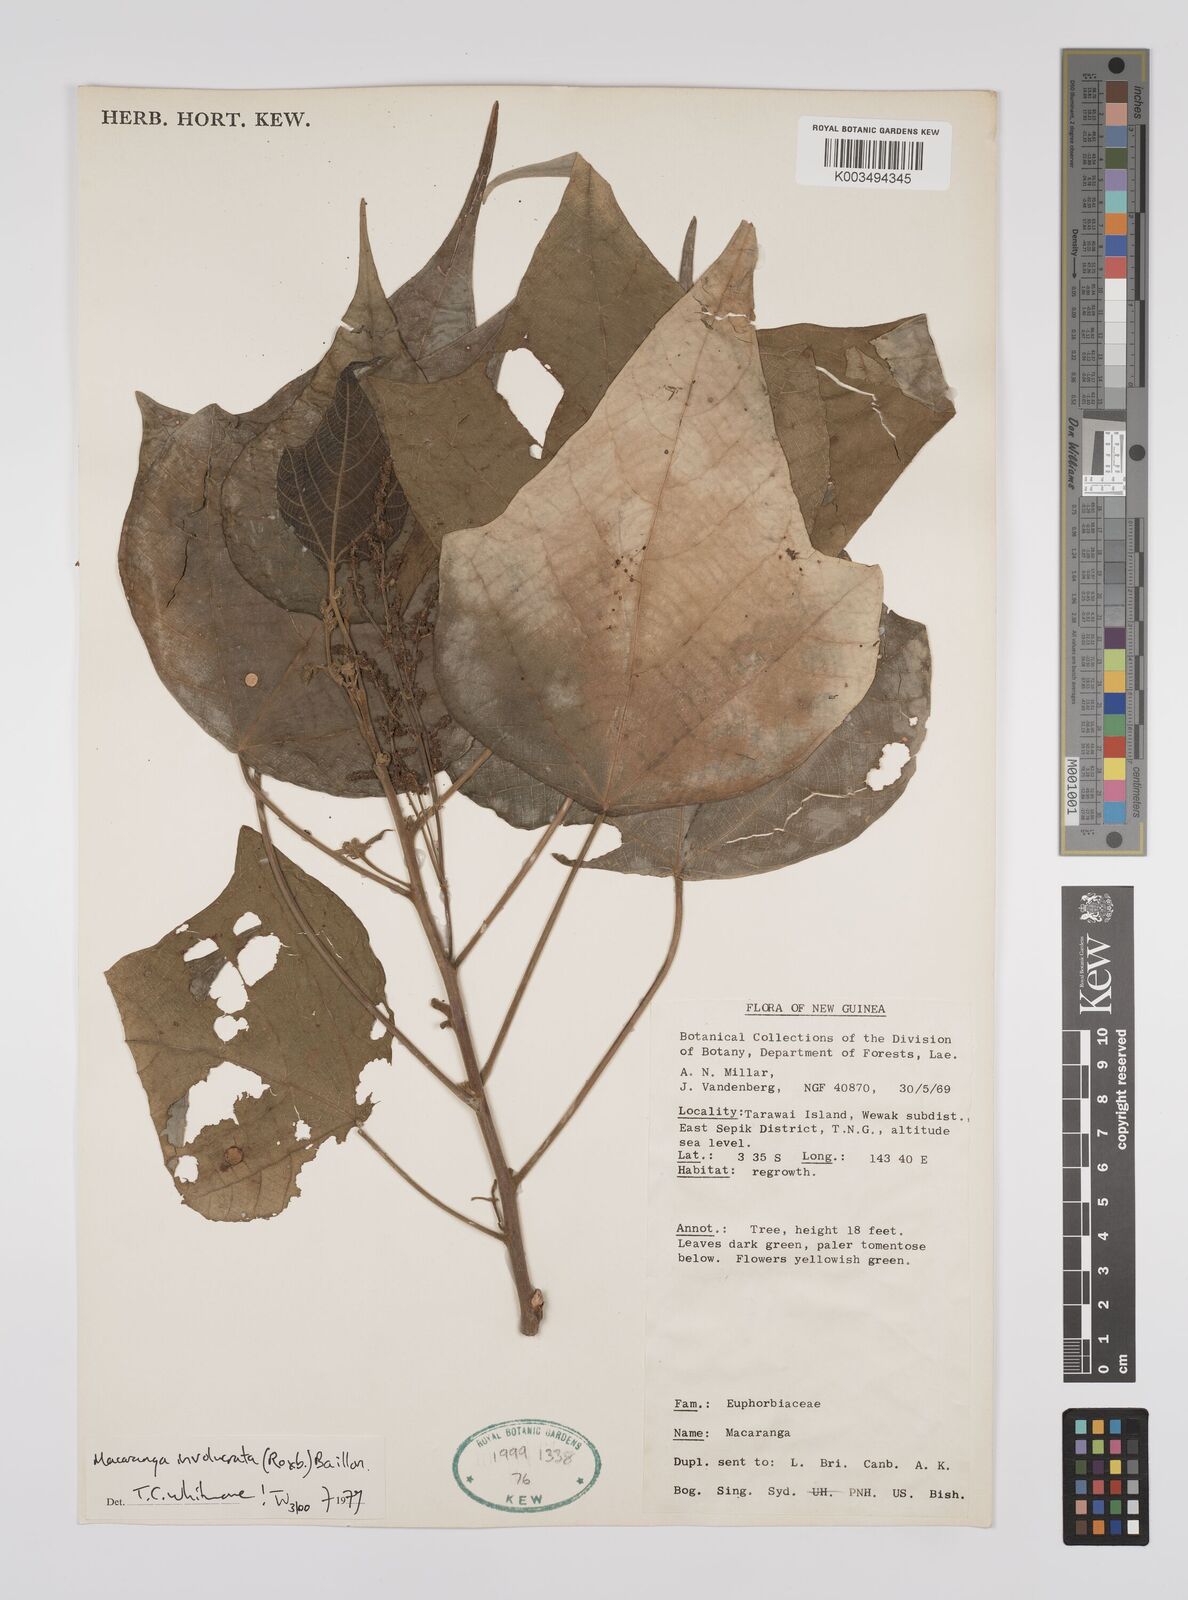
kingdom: Plantae
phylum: Tracheophyta
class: Magnoliopsida
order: Malpighiales
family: Euphorbiaceae
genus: Macaranga
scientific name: Macaranga involucrata
